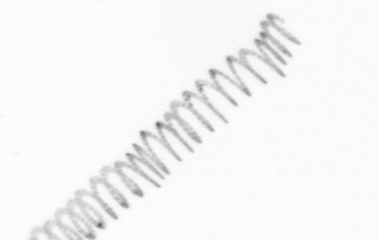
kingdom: Chromista
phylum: Ochrophyta
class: Bacillariophyceae
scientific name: Bacillariophyceae
